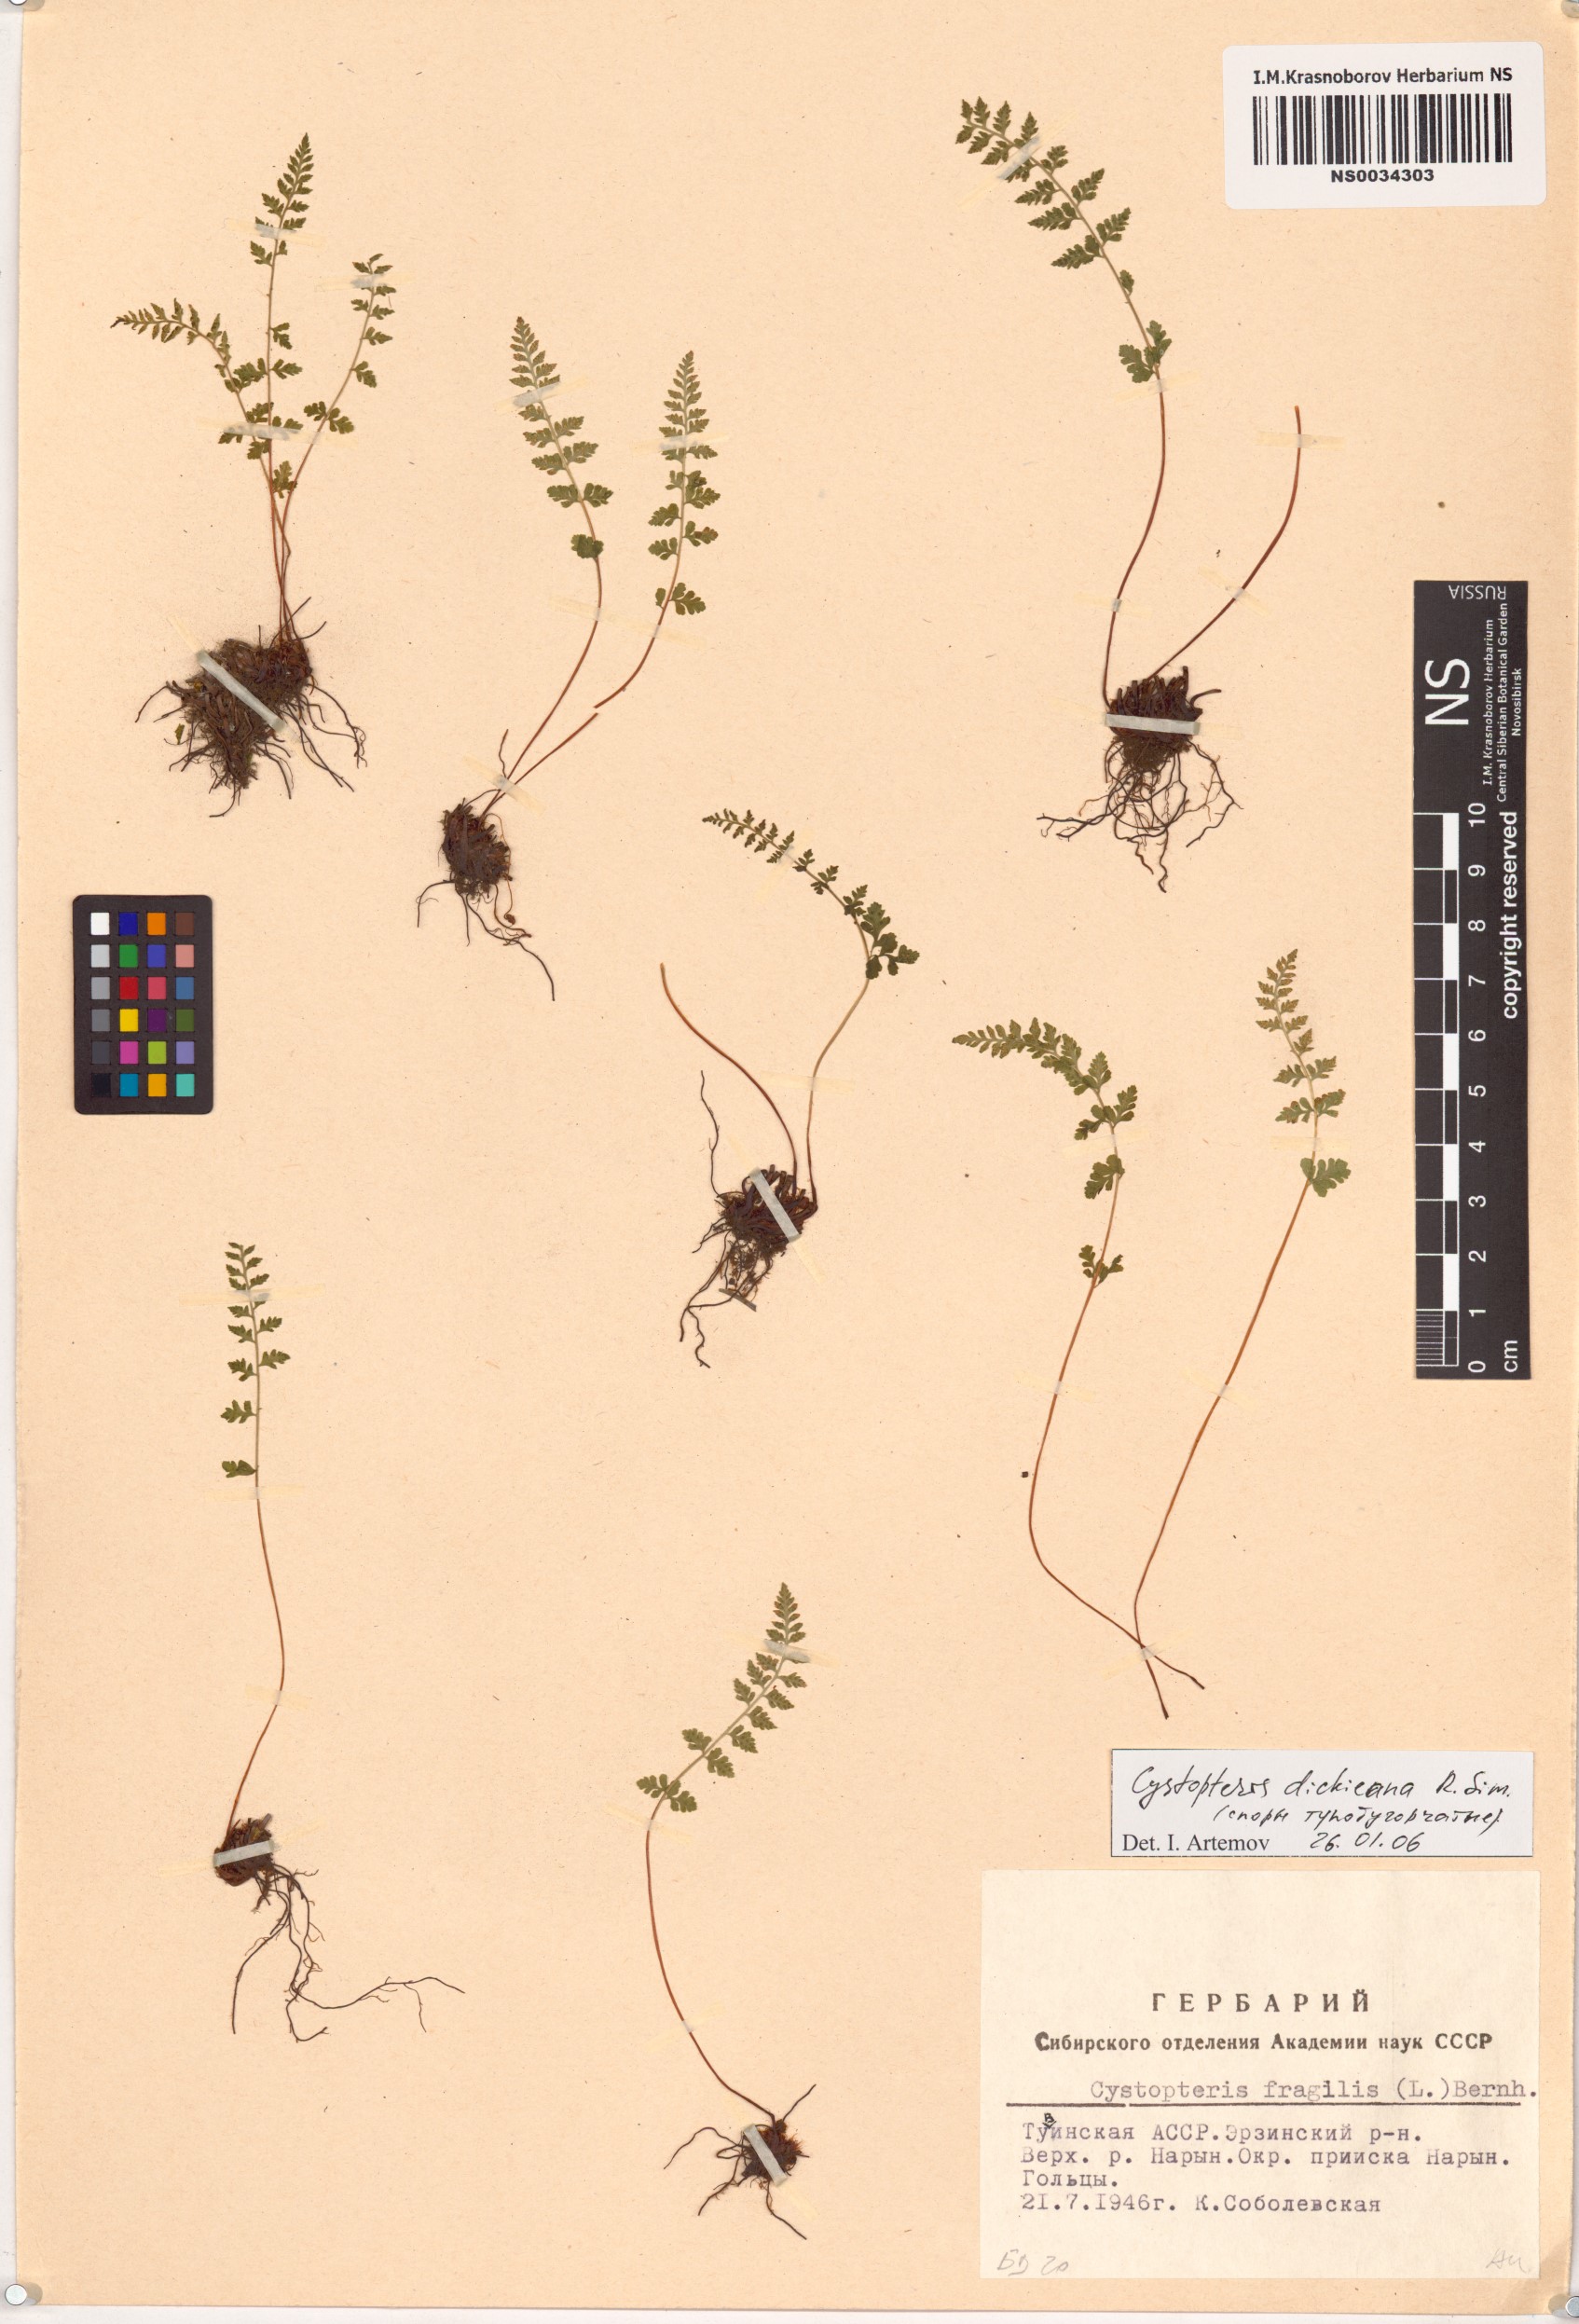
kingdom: Plantae
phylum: Tracheophyta
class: Polypodiopsida
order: Polypodiales
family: Cystopteridaceae
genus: Cystopteris
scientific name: Cystopteris dickieana
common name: Dickie's bladder-fern
